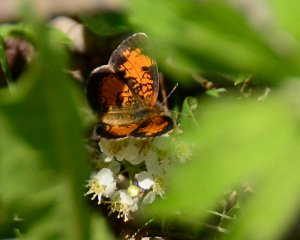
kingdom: Animalia
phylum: Arthropoda
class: Insecta
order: Lepidoptera
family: Nymphalidae
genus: Phyciodes
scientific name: Phyciodes tharos
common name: Northern Crescent
